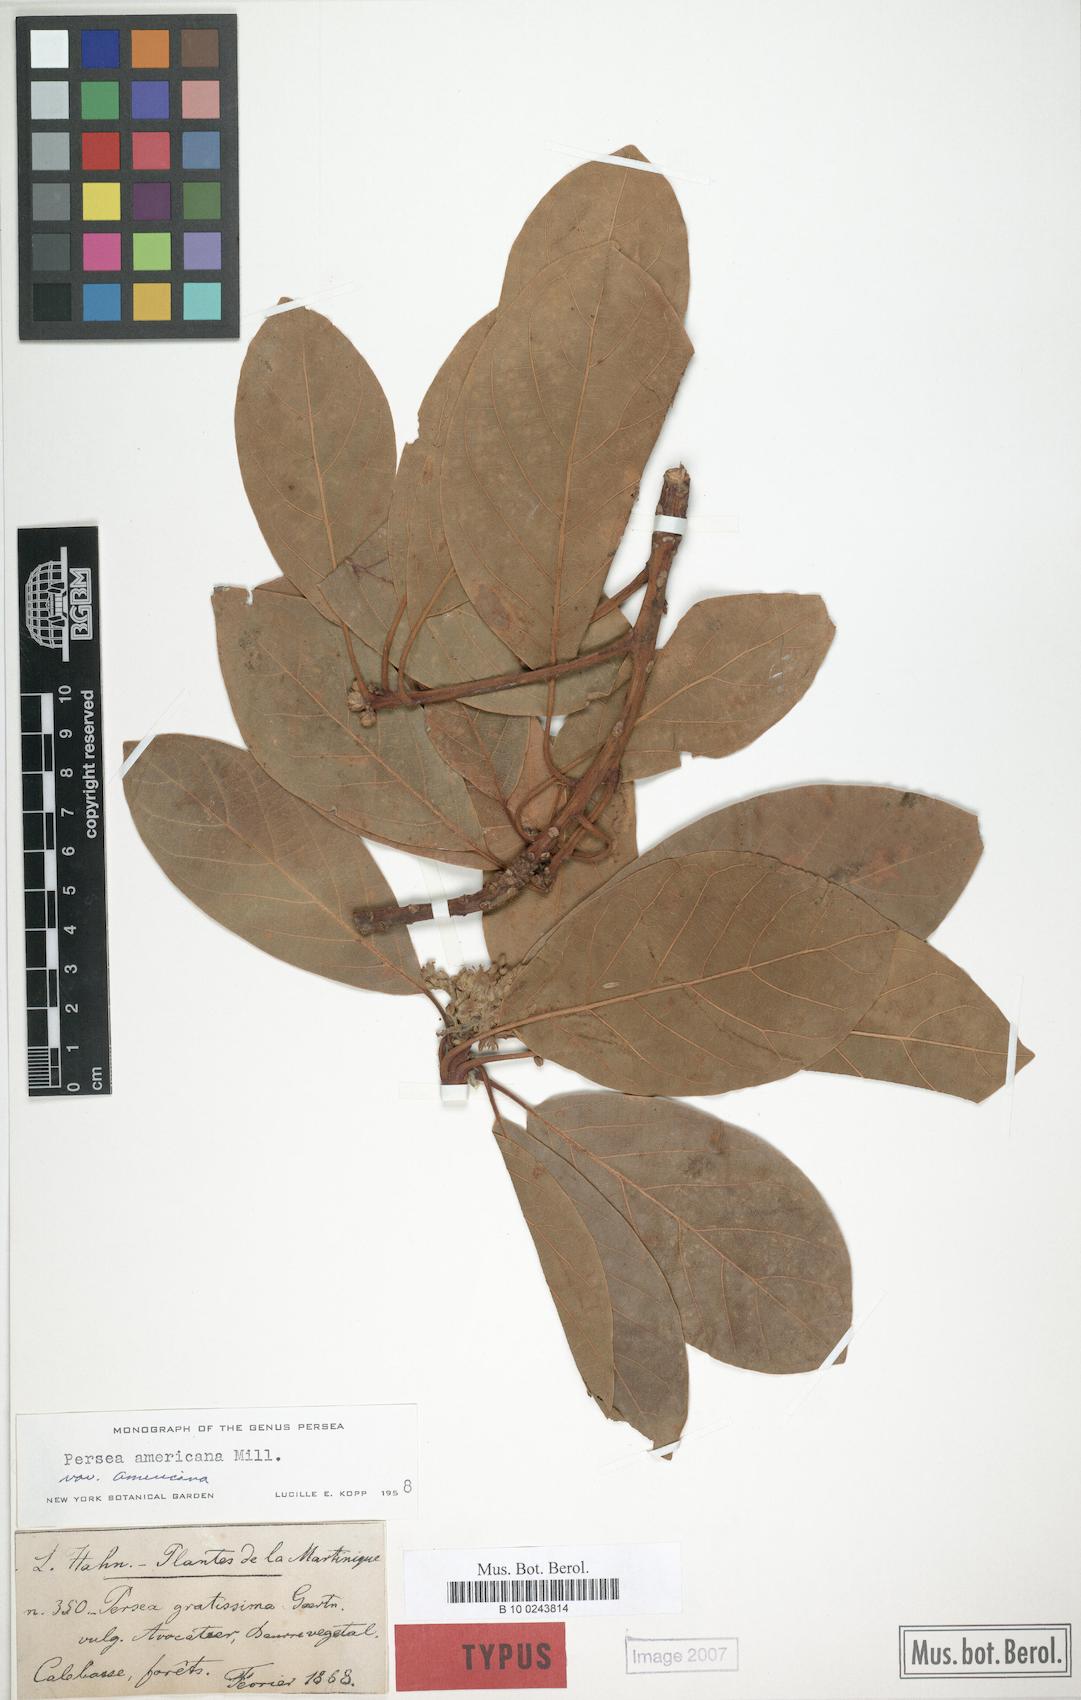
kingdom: Plantae
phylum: Tracheophyta
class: Magnoliopsida
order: Laurales
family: Lauraceae
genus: Persea
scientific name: Persea americana
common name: Avocado
